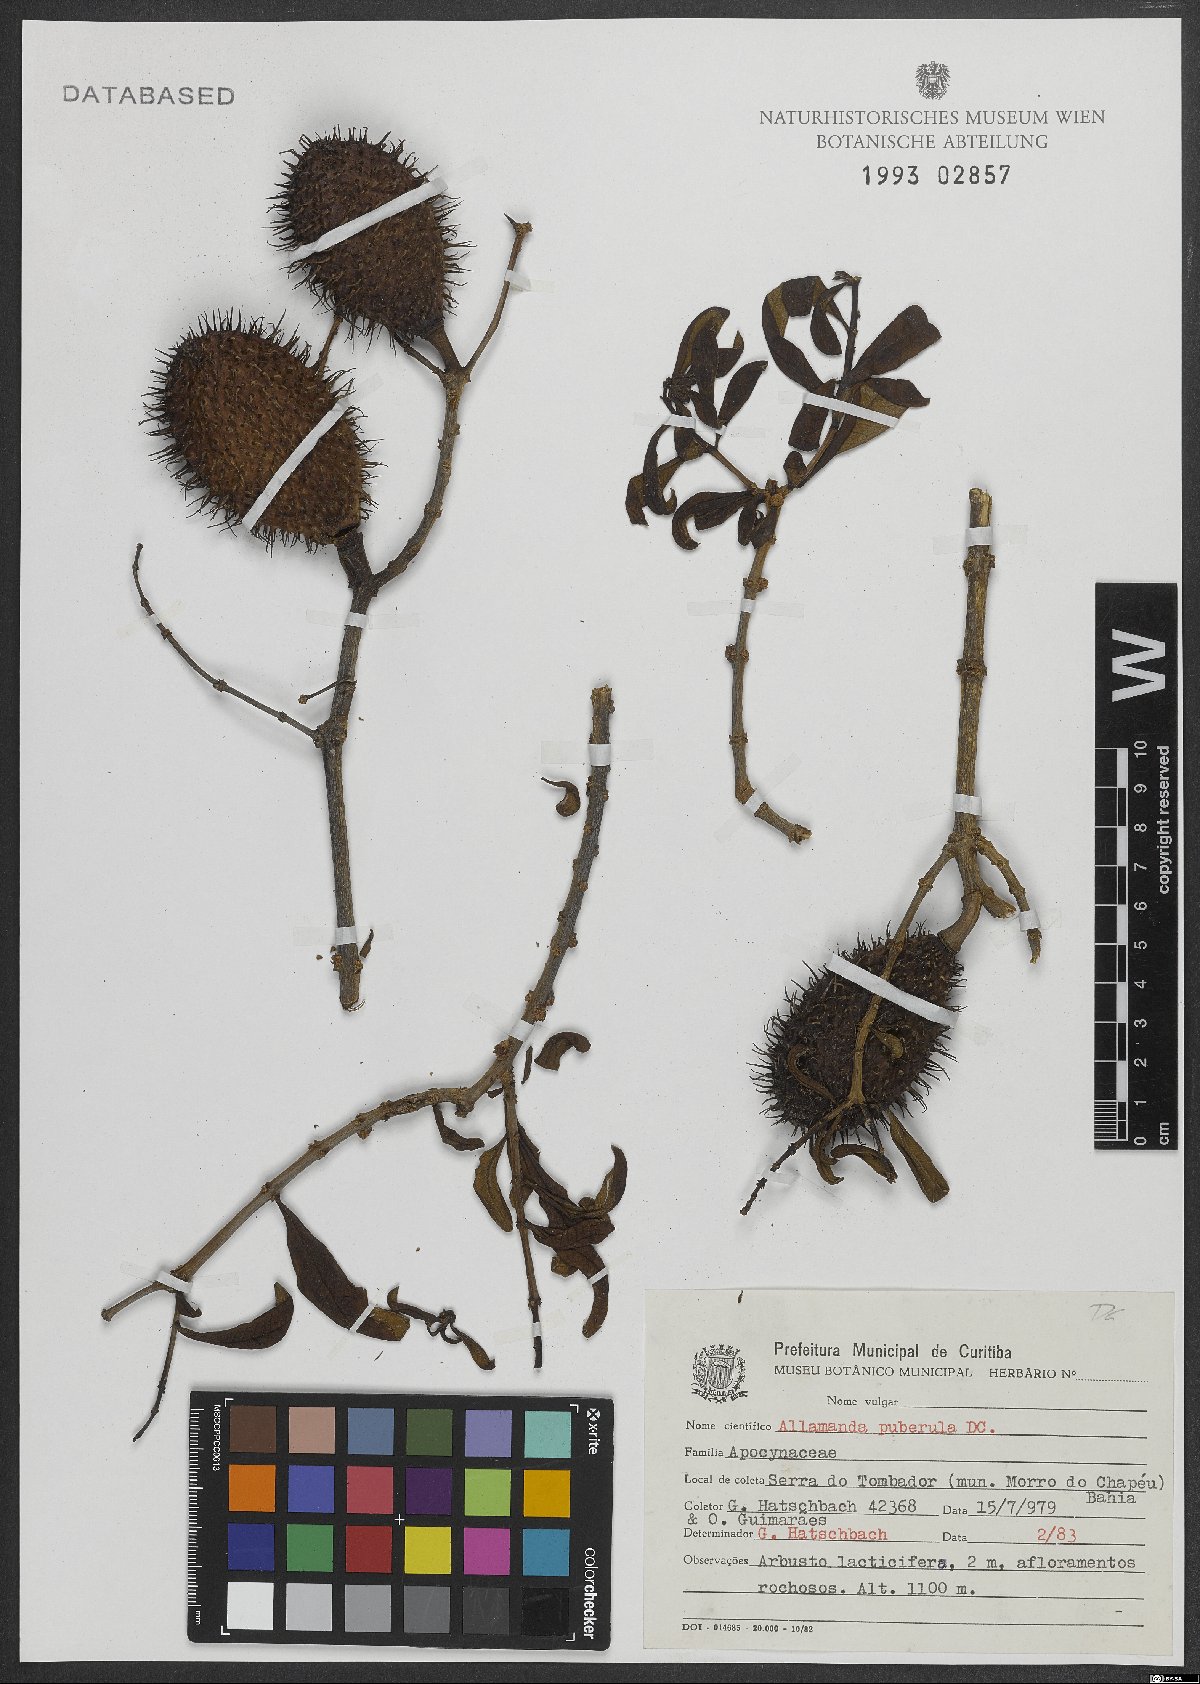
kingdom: Plantae
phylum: Tracheophyta
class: Magnoliopsida
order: Gentianales
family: Apocynaceae
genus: Allamanda
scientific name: Allamanda puberula
